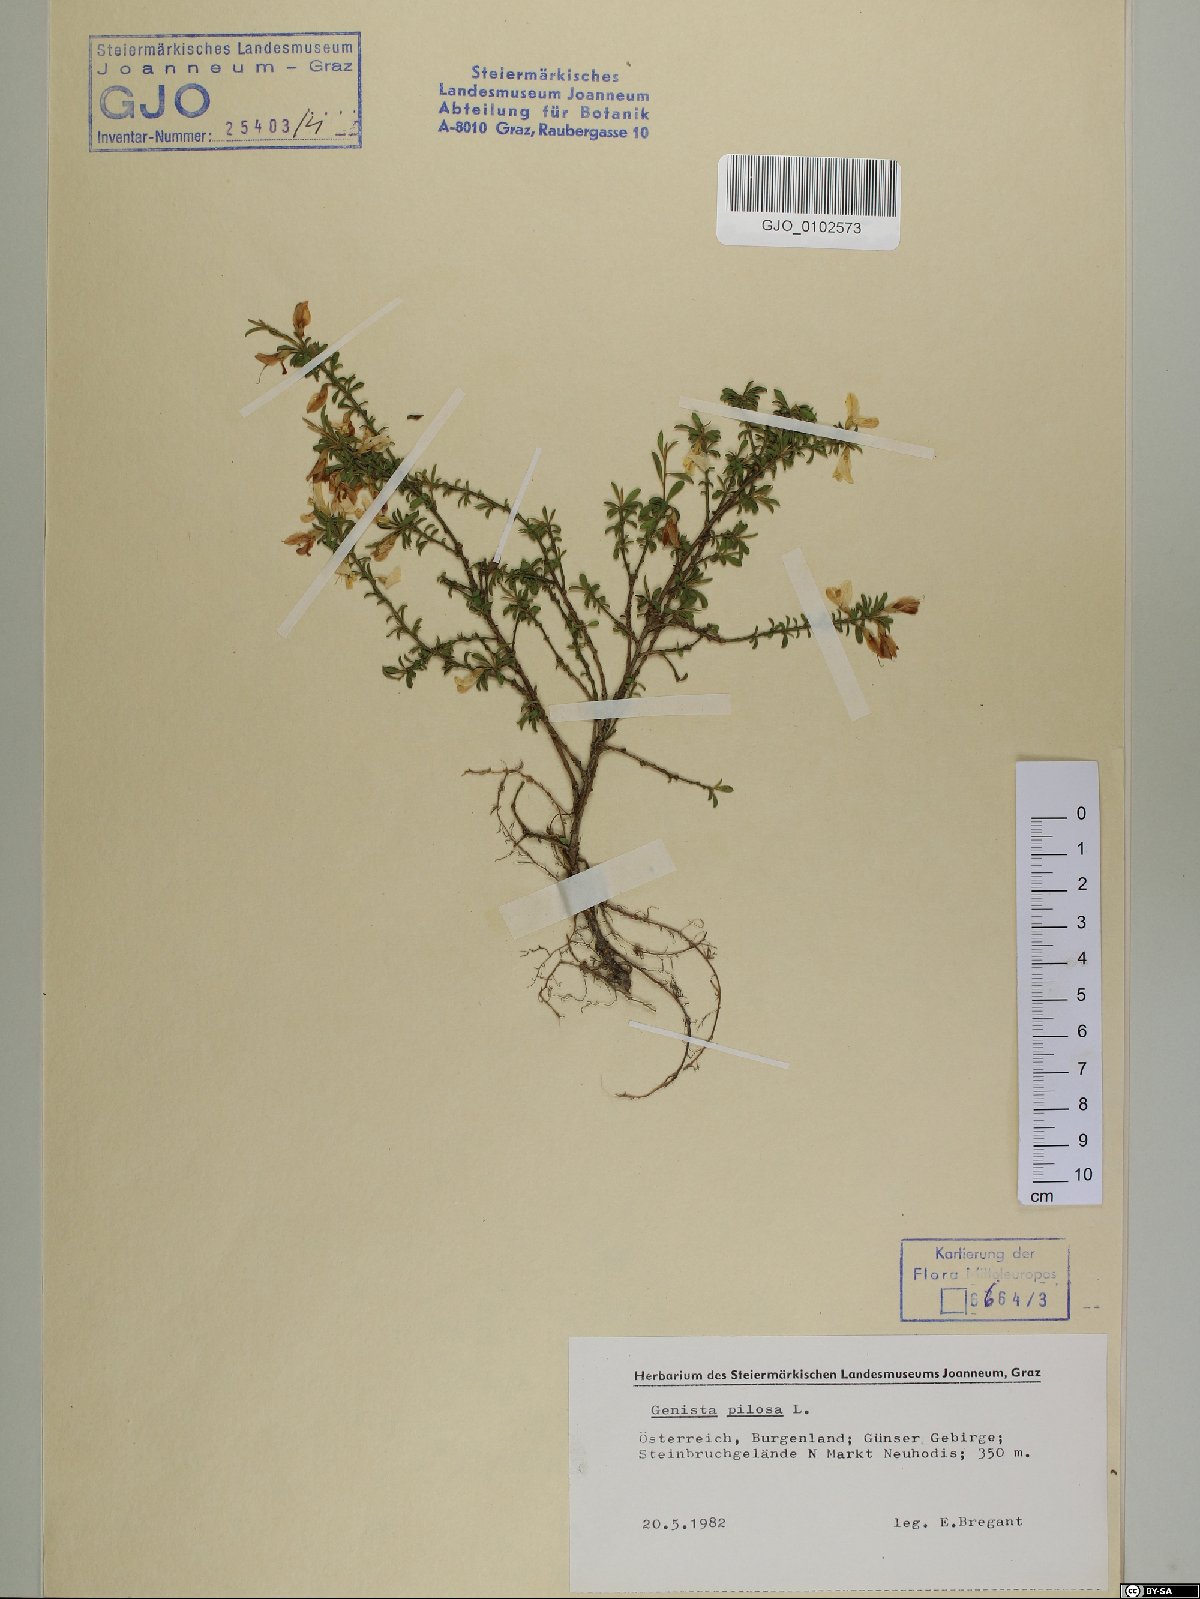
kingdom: Plantae
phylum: Tracheophyta
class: Magnoliopsida
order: Fabales
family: Fabaceae
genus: Genista
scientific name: Genista pilosa
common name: Hairy greenweed
